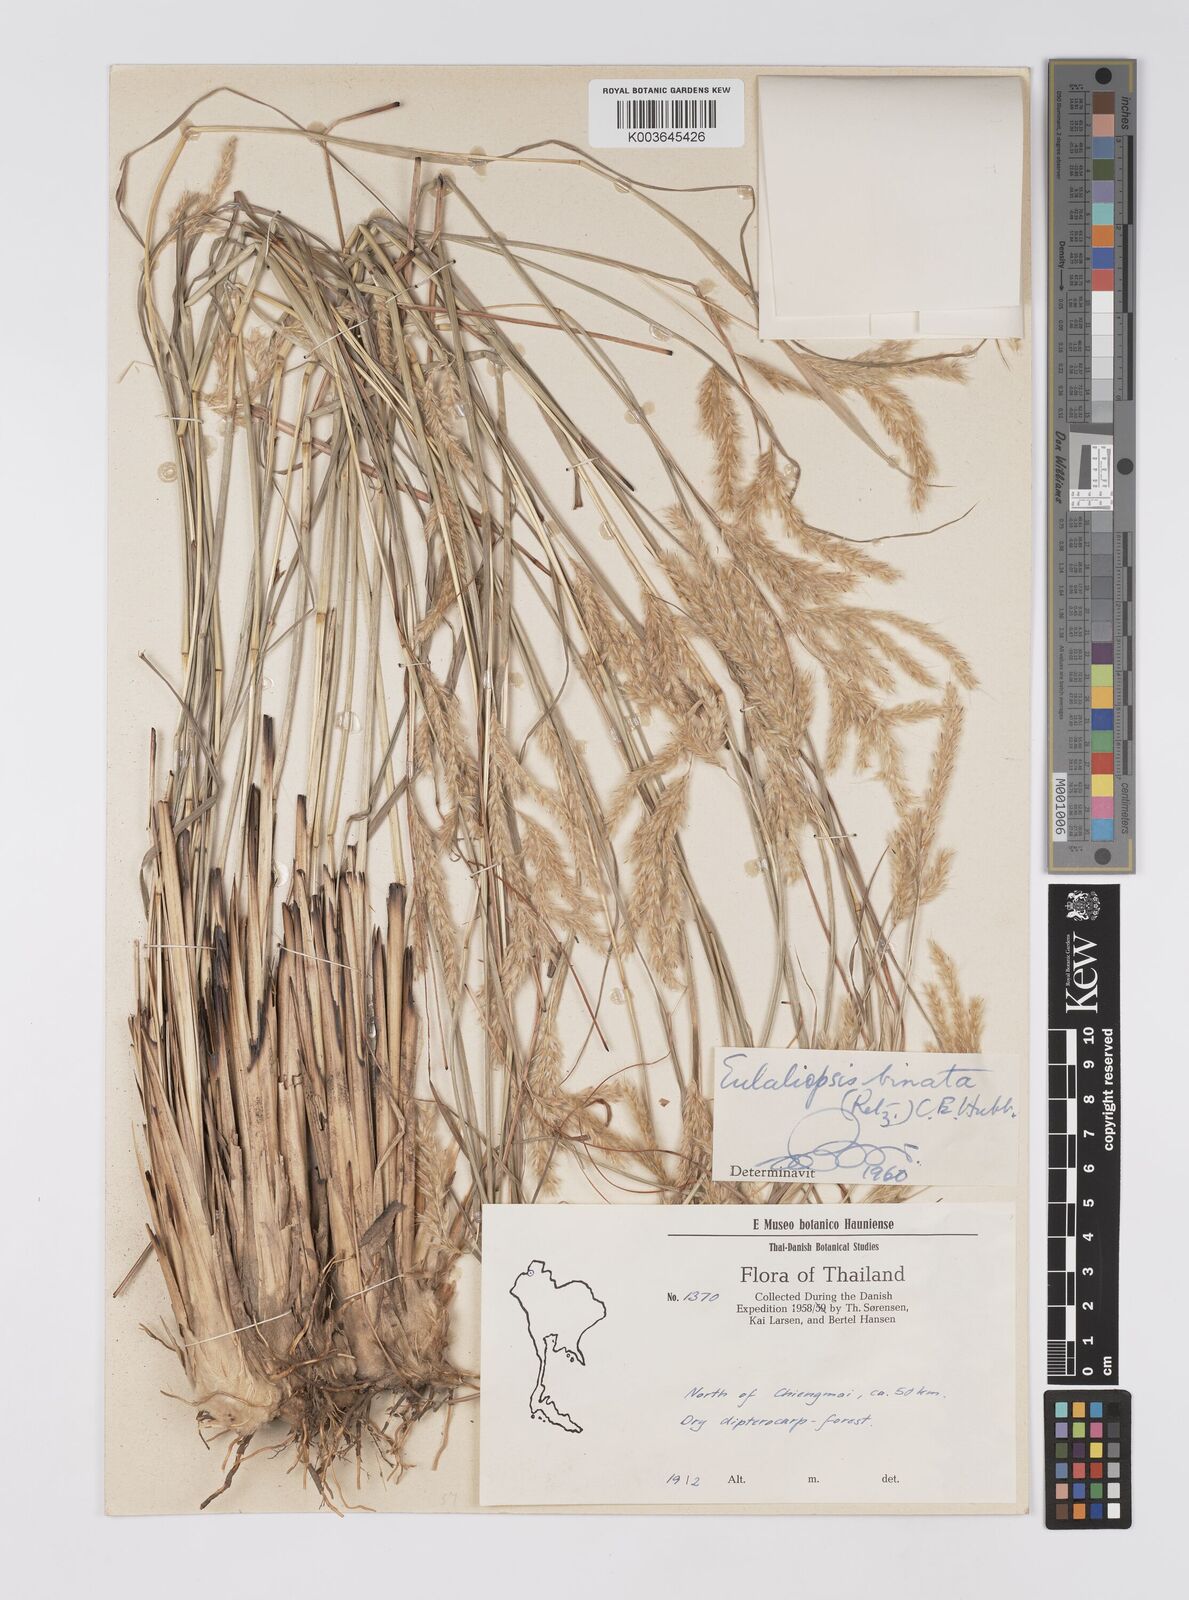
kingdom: Plantae
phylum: Tracheophyta
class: Liliopsida
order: Poales
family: Poaceae
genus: Eulaliopsis
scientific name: Eulaliopsis binata
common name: Baib grass
